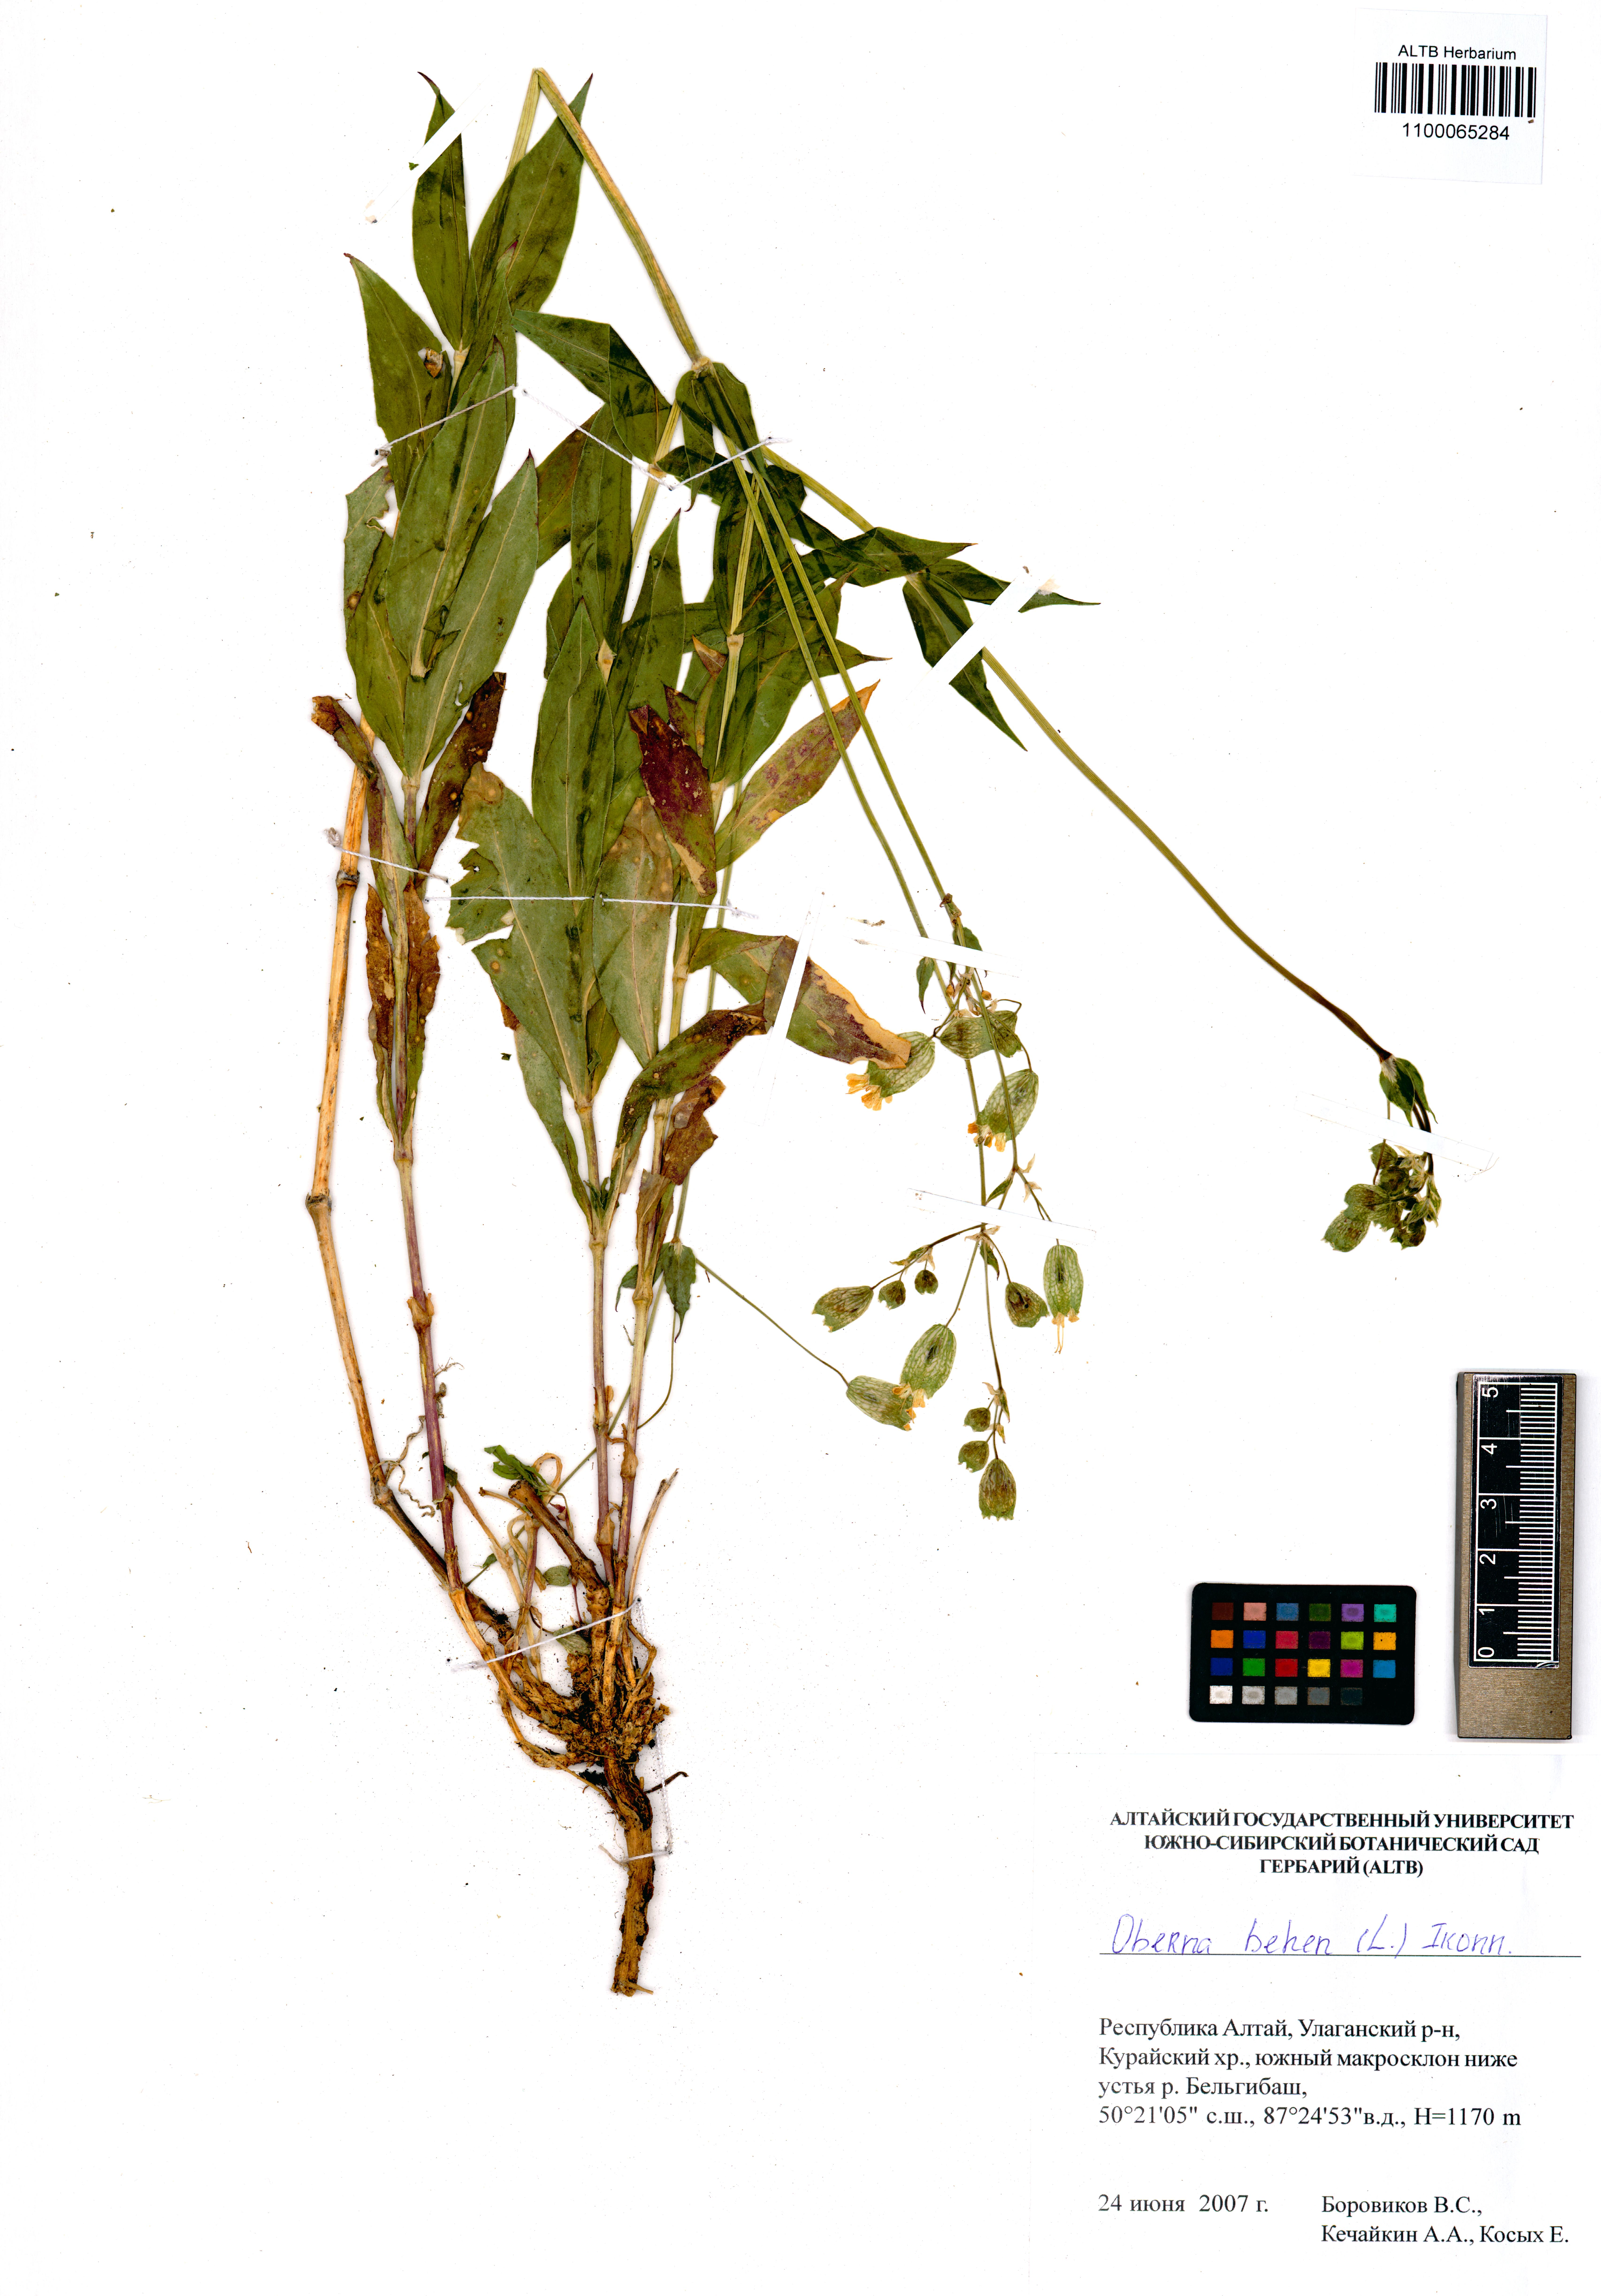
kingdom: Plantae
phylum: Tracheophyta
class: Magnoliopsida
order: Caryophyllales
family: Caryophyllaceae
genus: Silene
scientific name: Silene behen
